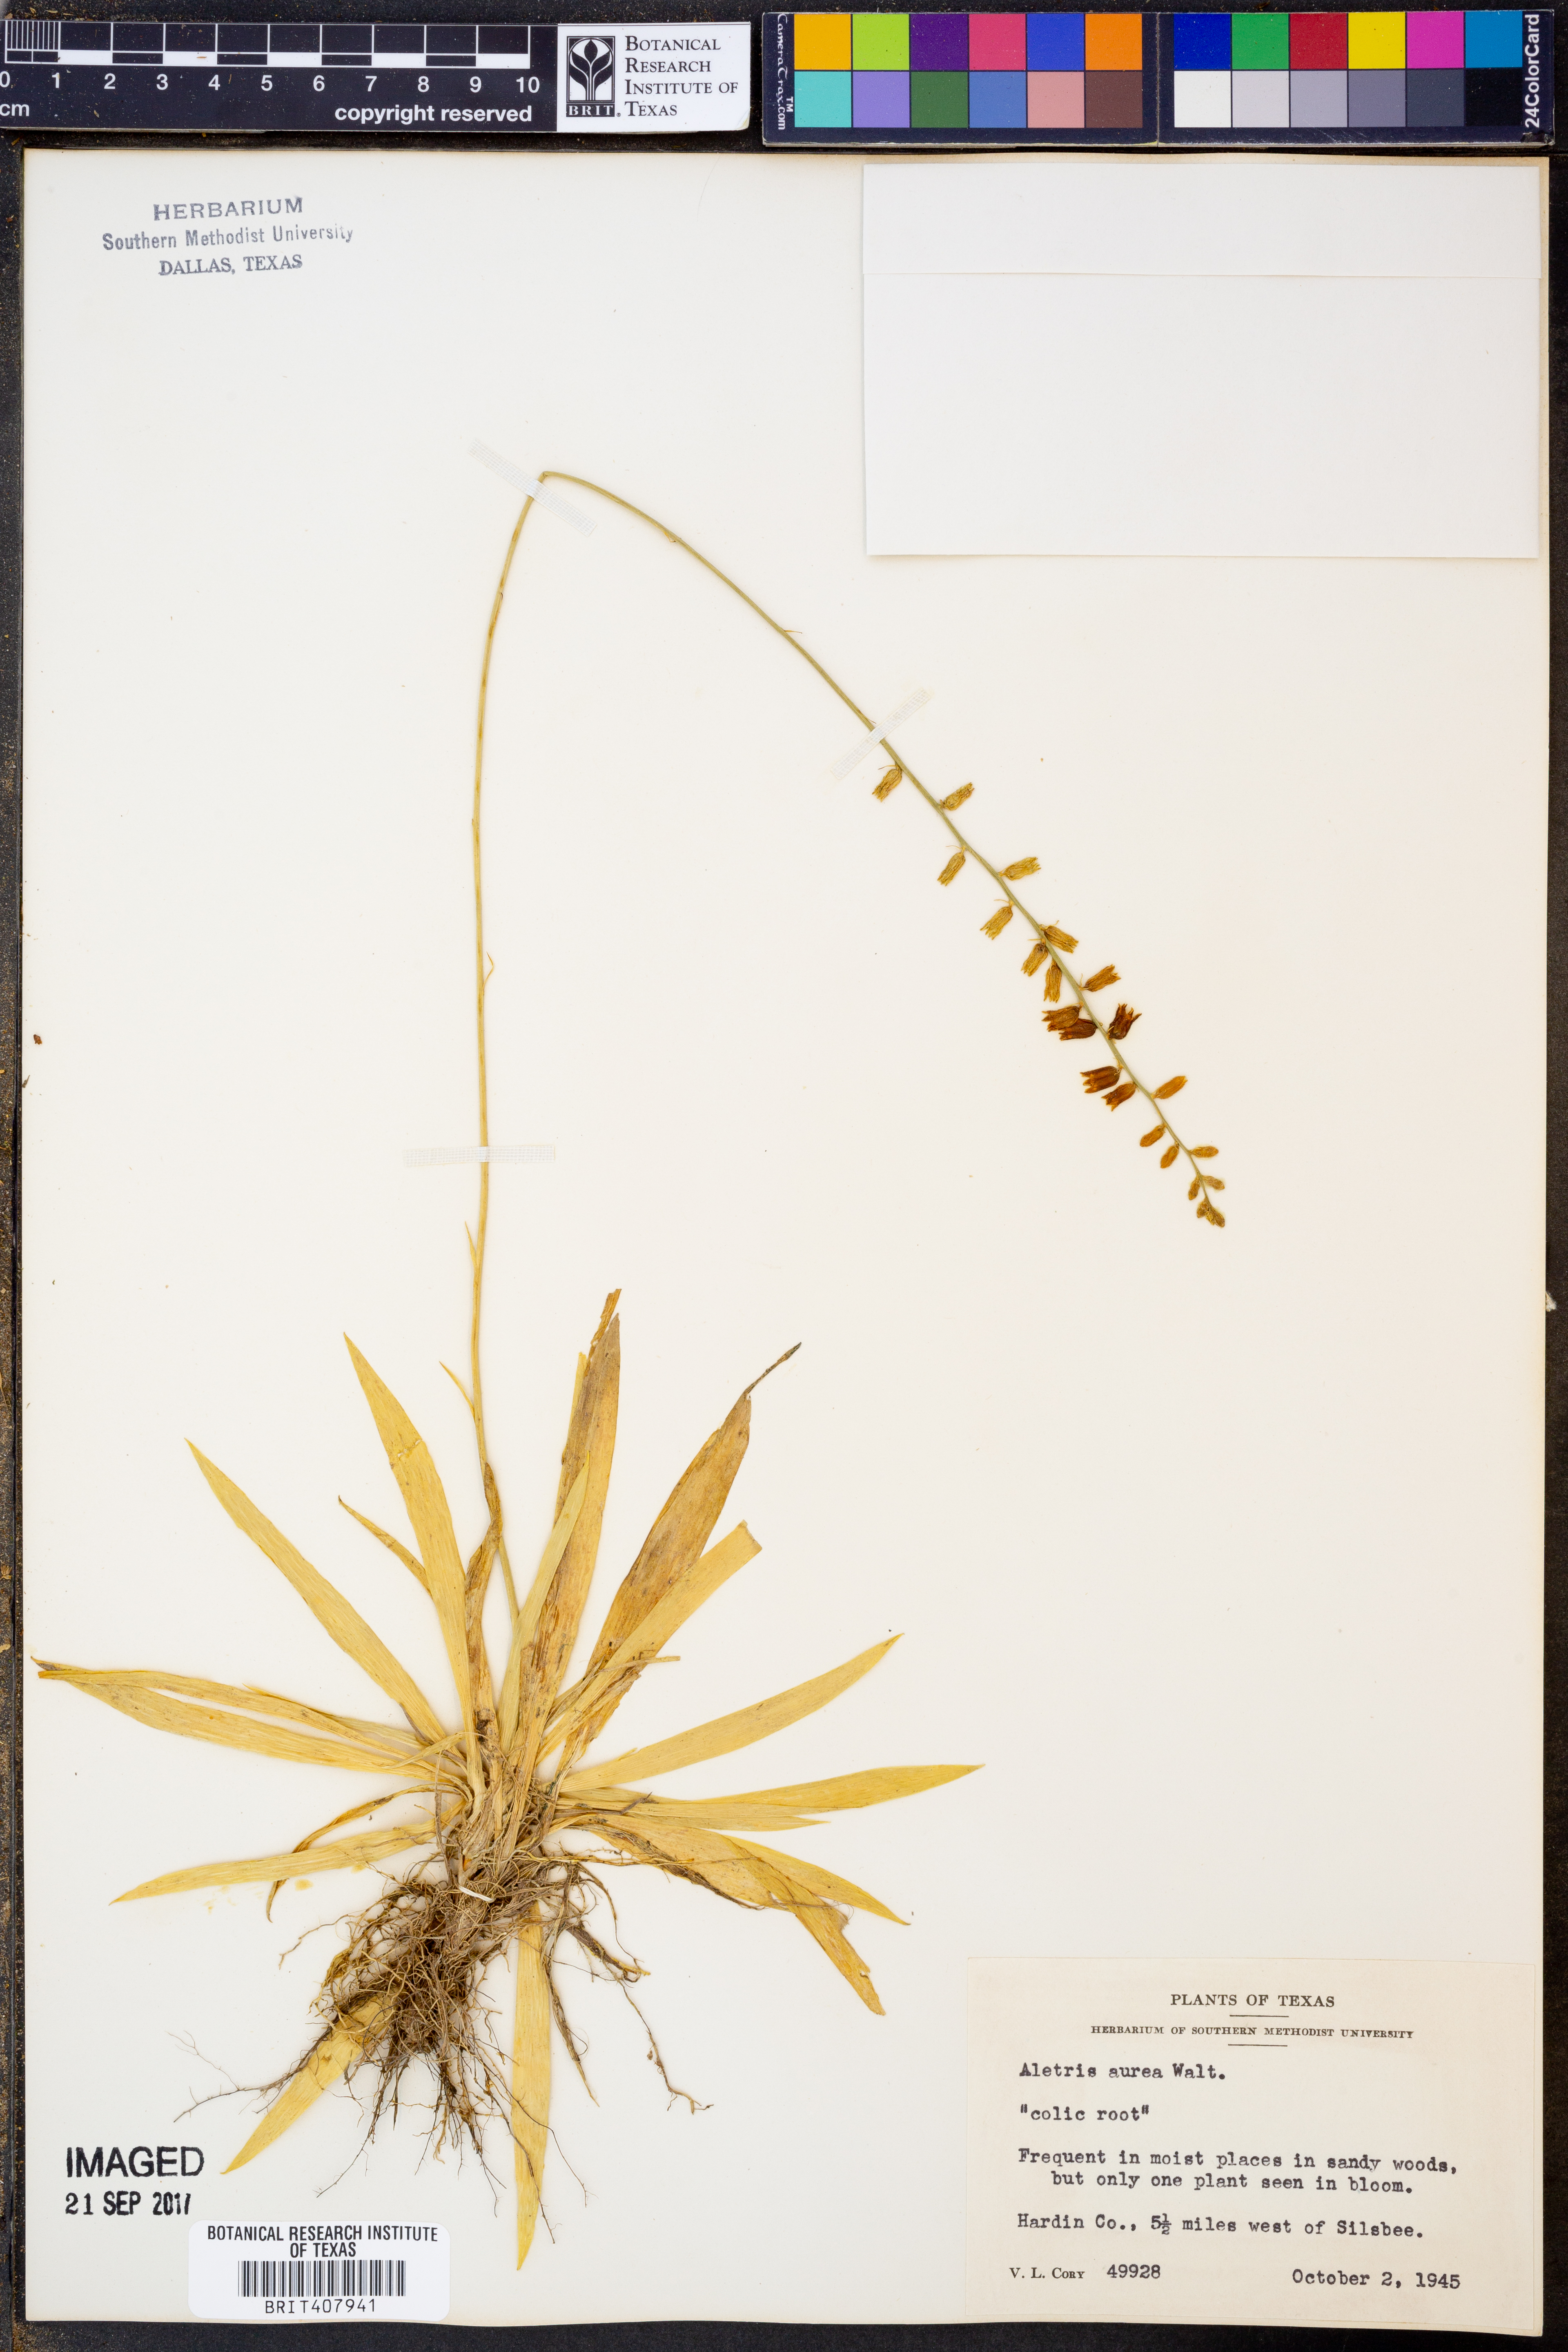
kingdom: Plantae
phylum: Tracheophyta
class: Liliopsida
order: Dioscoreales
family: Nartheciaceae
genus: Aletris
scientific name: Aletris aurea
